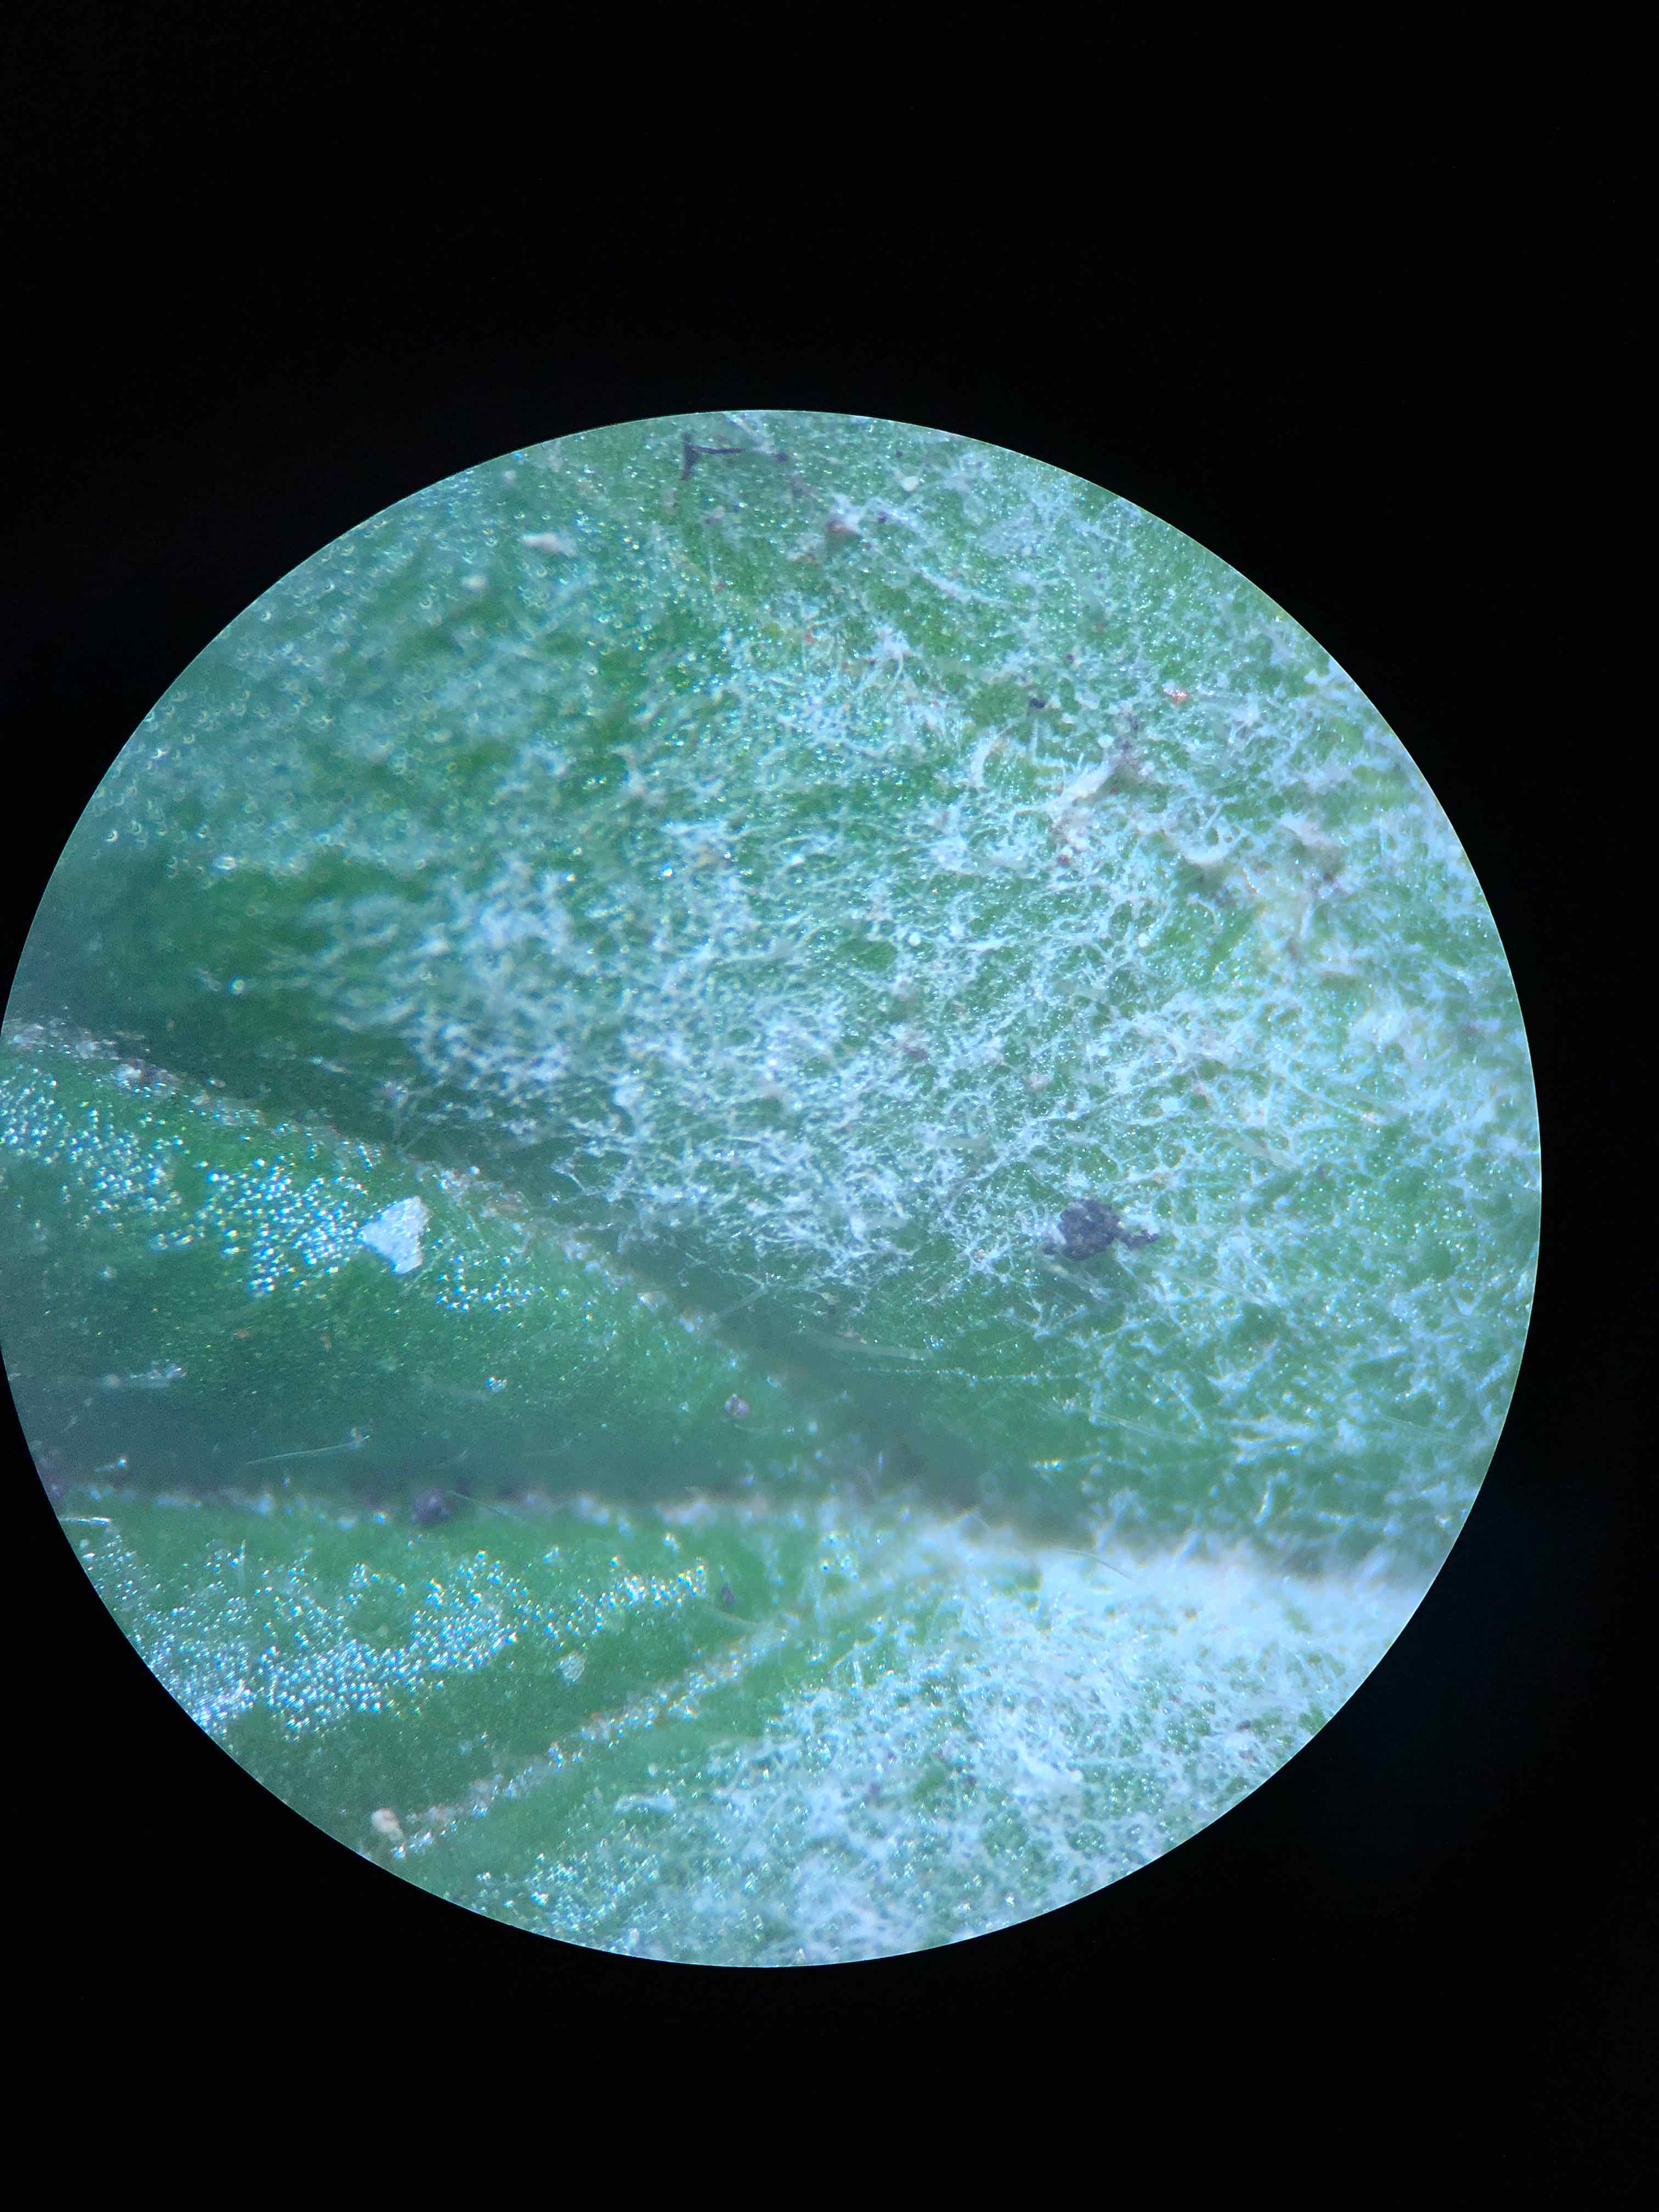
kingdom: Fungi
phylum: Ascomycota
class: Leotiomycetes
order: Helotiales
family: Erysiphaceae
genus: Podosphaera
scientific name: Podosphaera aphanis
